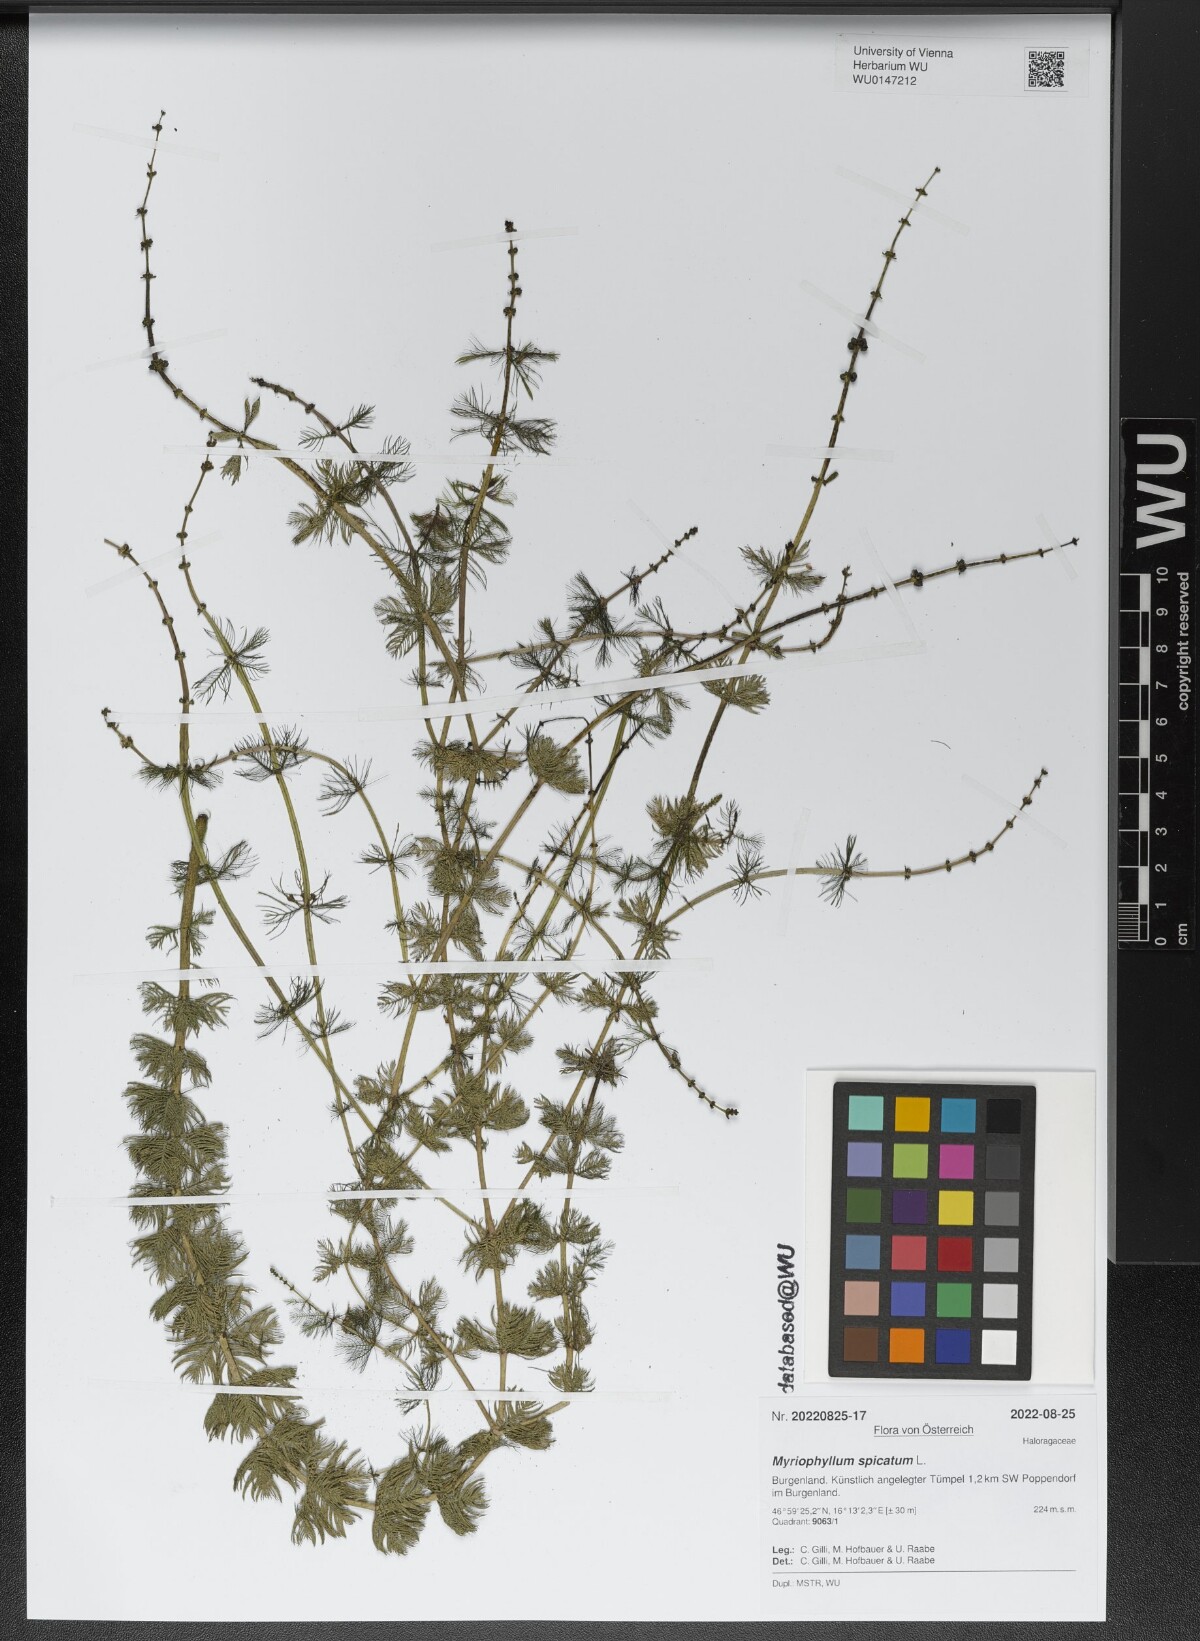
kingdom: Plantae
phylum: Tracheophyta
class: Magnoliopsida
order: Saxifragales
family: Haloragaceae
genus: Myriophyllum
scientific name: Myriophyllum spicatum
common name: Spiked water-milfoil
